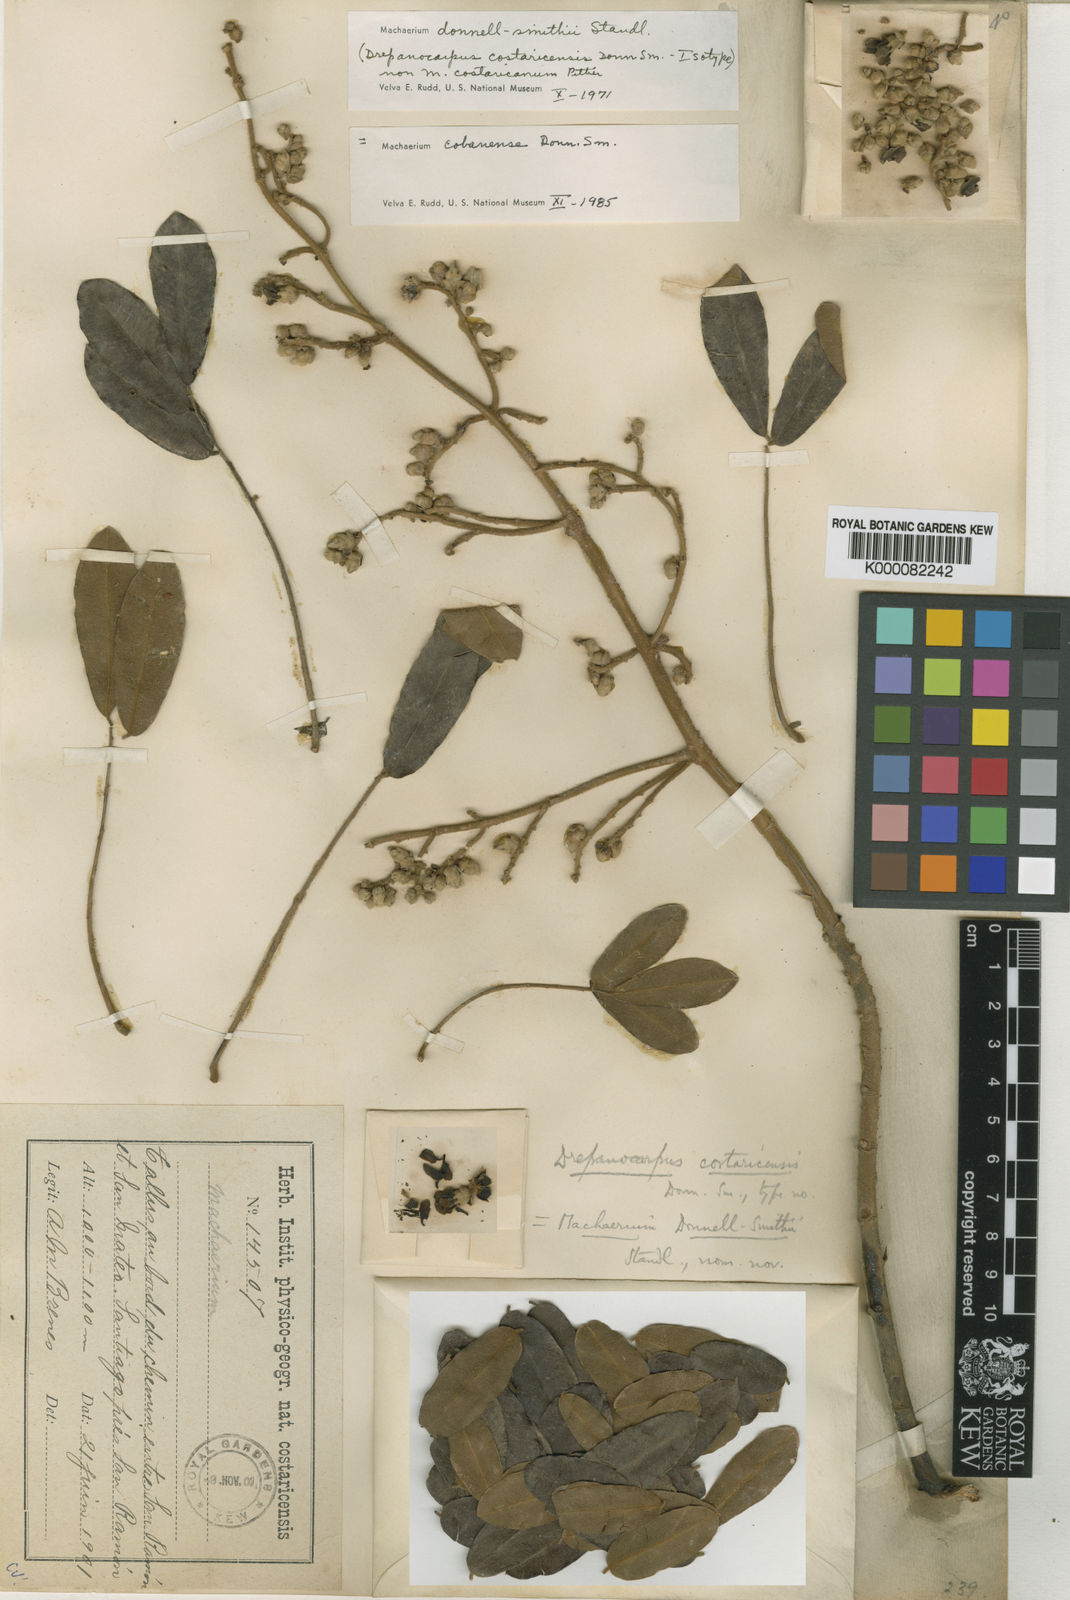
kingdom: Plantae
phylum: Tracheophyta
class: Magnoliopsida
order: Fabales
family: Fabaceae
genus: Machaerium
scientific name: Machaerium
